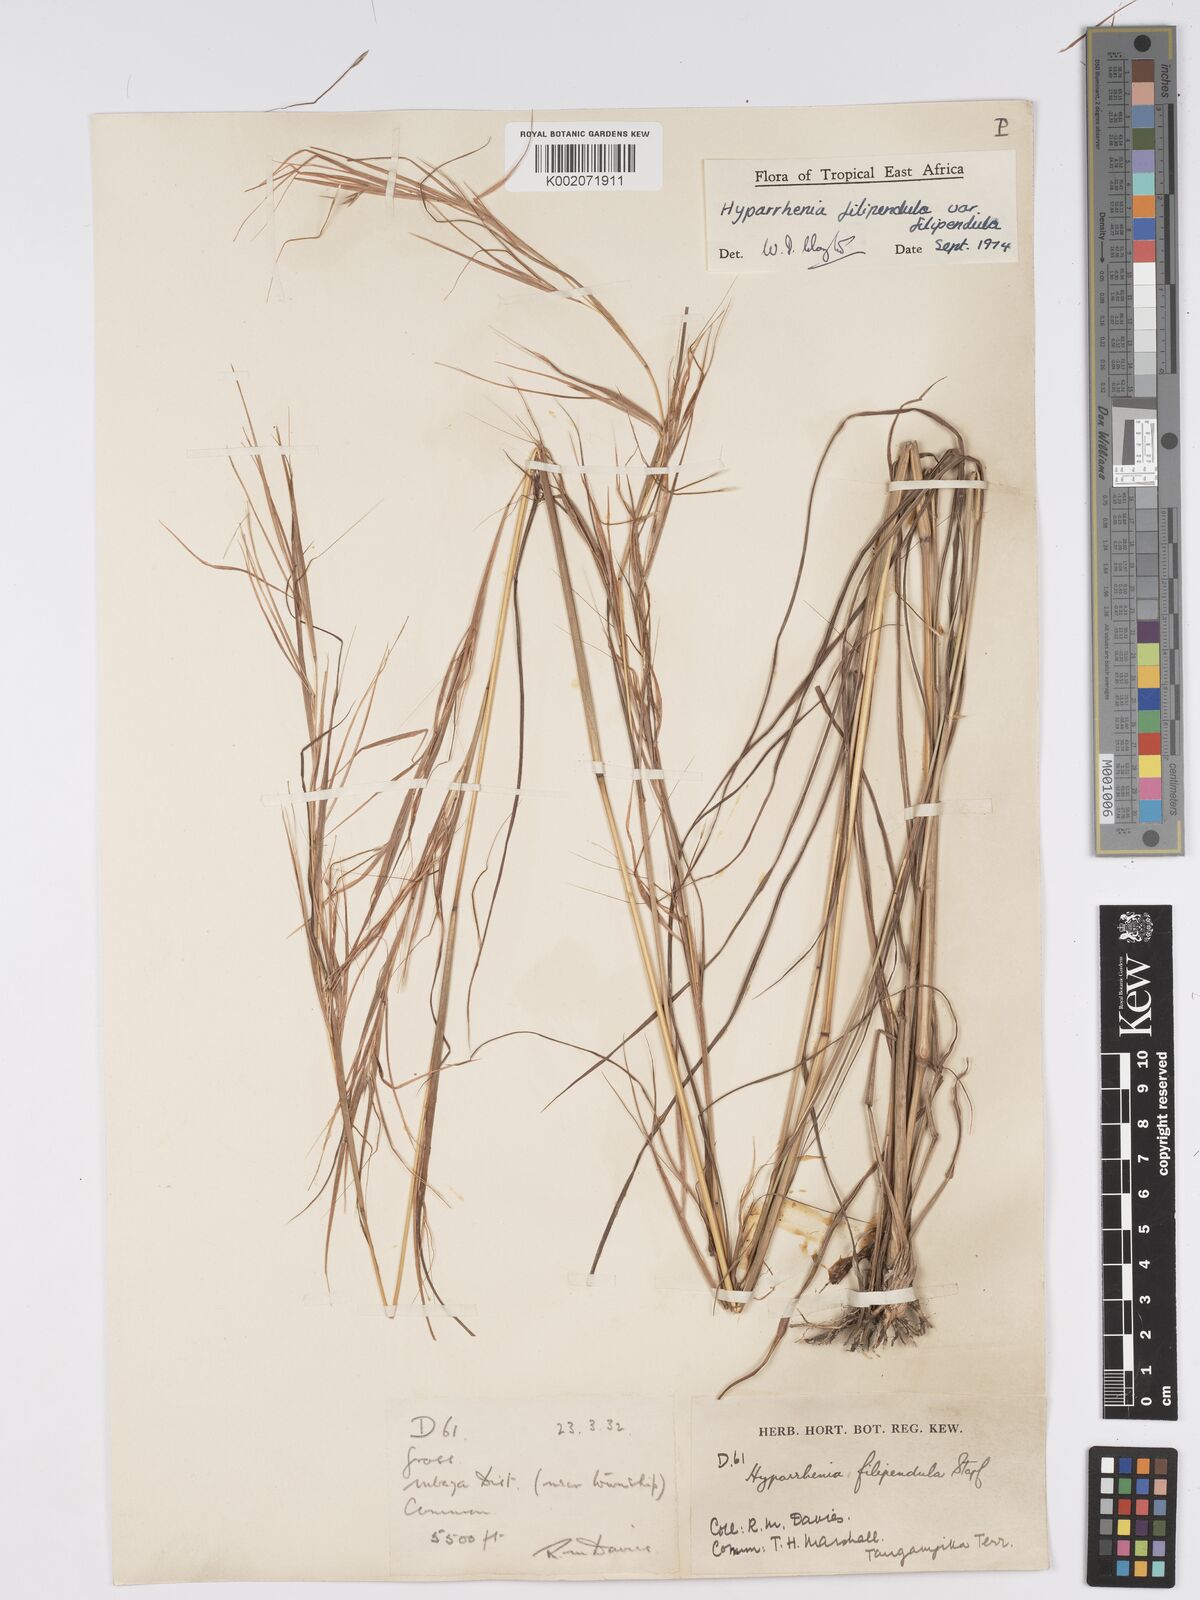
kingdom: Plantae
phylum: Tracheophyta
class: Liliopsida
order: Poales
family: Poaceae
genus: Hyparrhenia
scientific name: Hyparrhenia filipendula
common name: Tambookie grass
